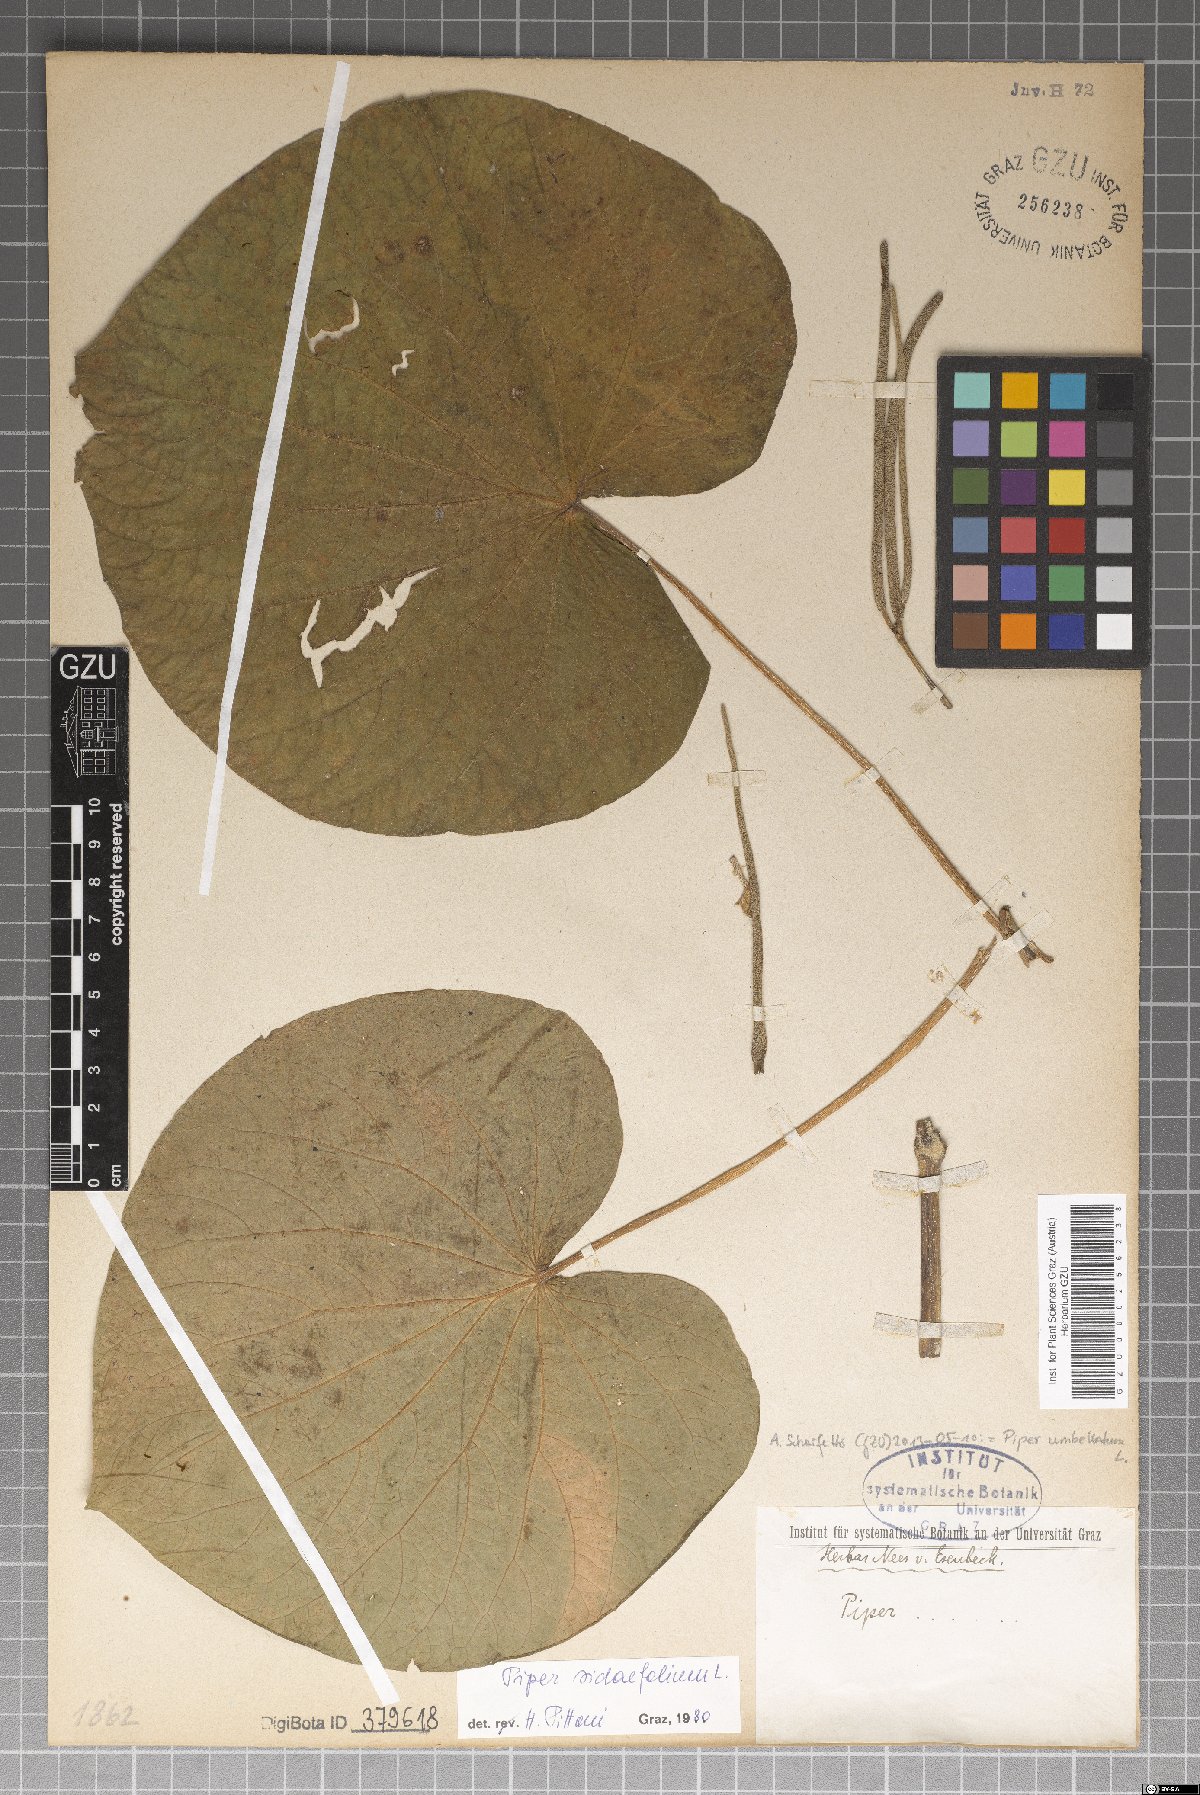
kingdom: Plantae
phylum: Tracheophyta
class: Magnoliopsida
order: Piperales
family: Piperaceae
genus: Piper
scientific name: Piper umbellatum
